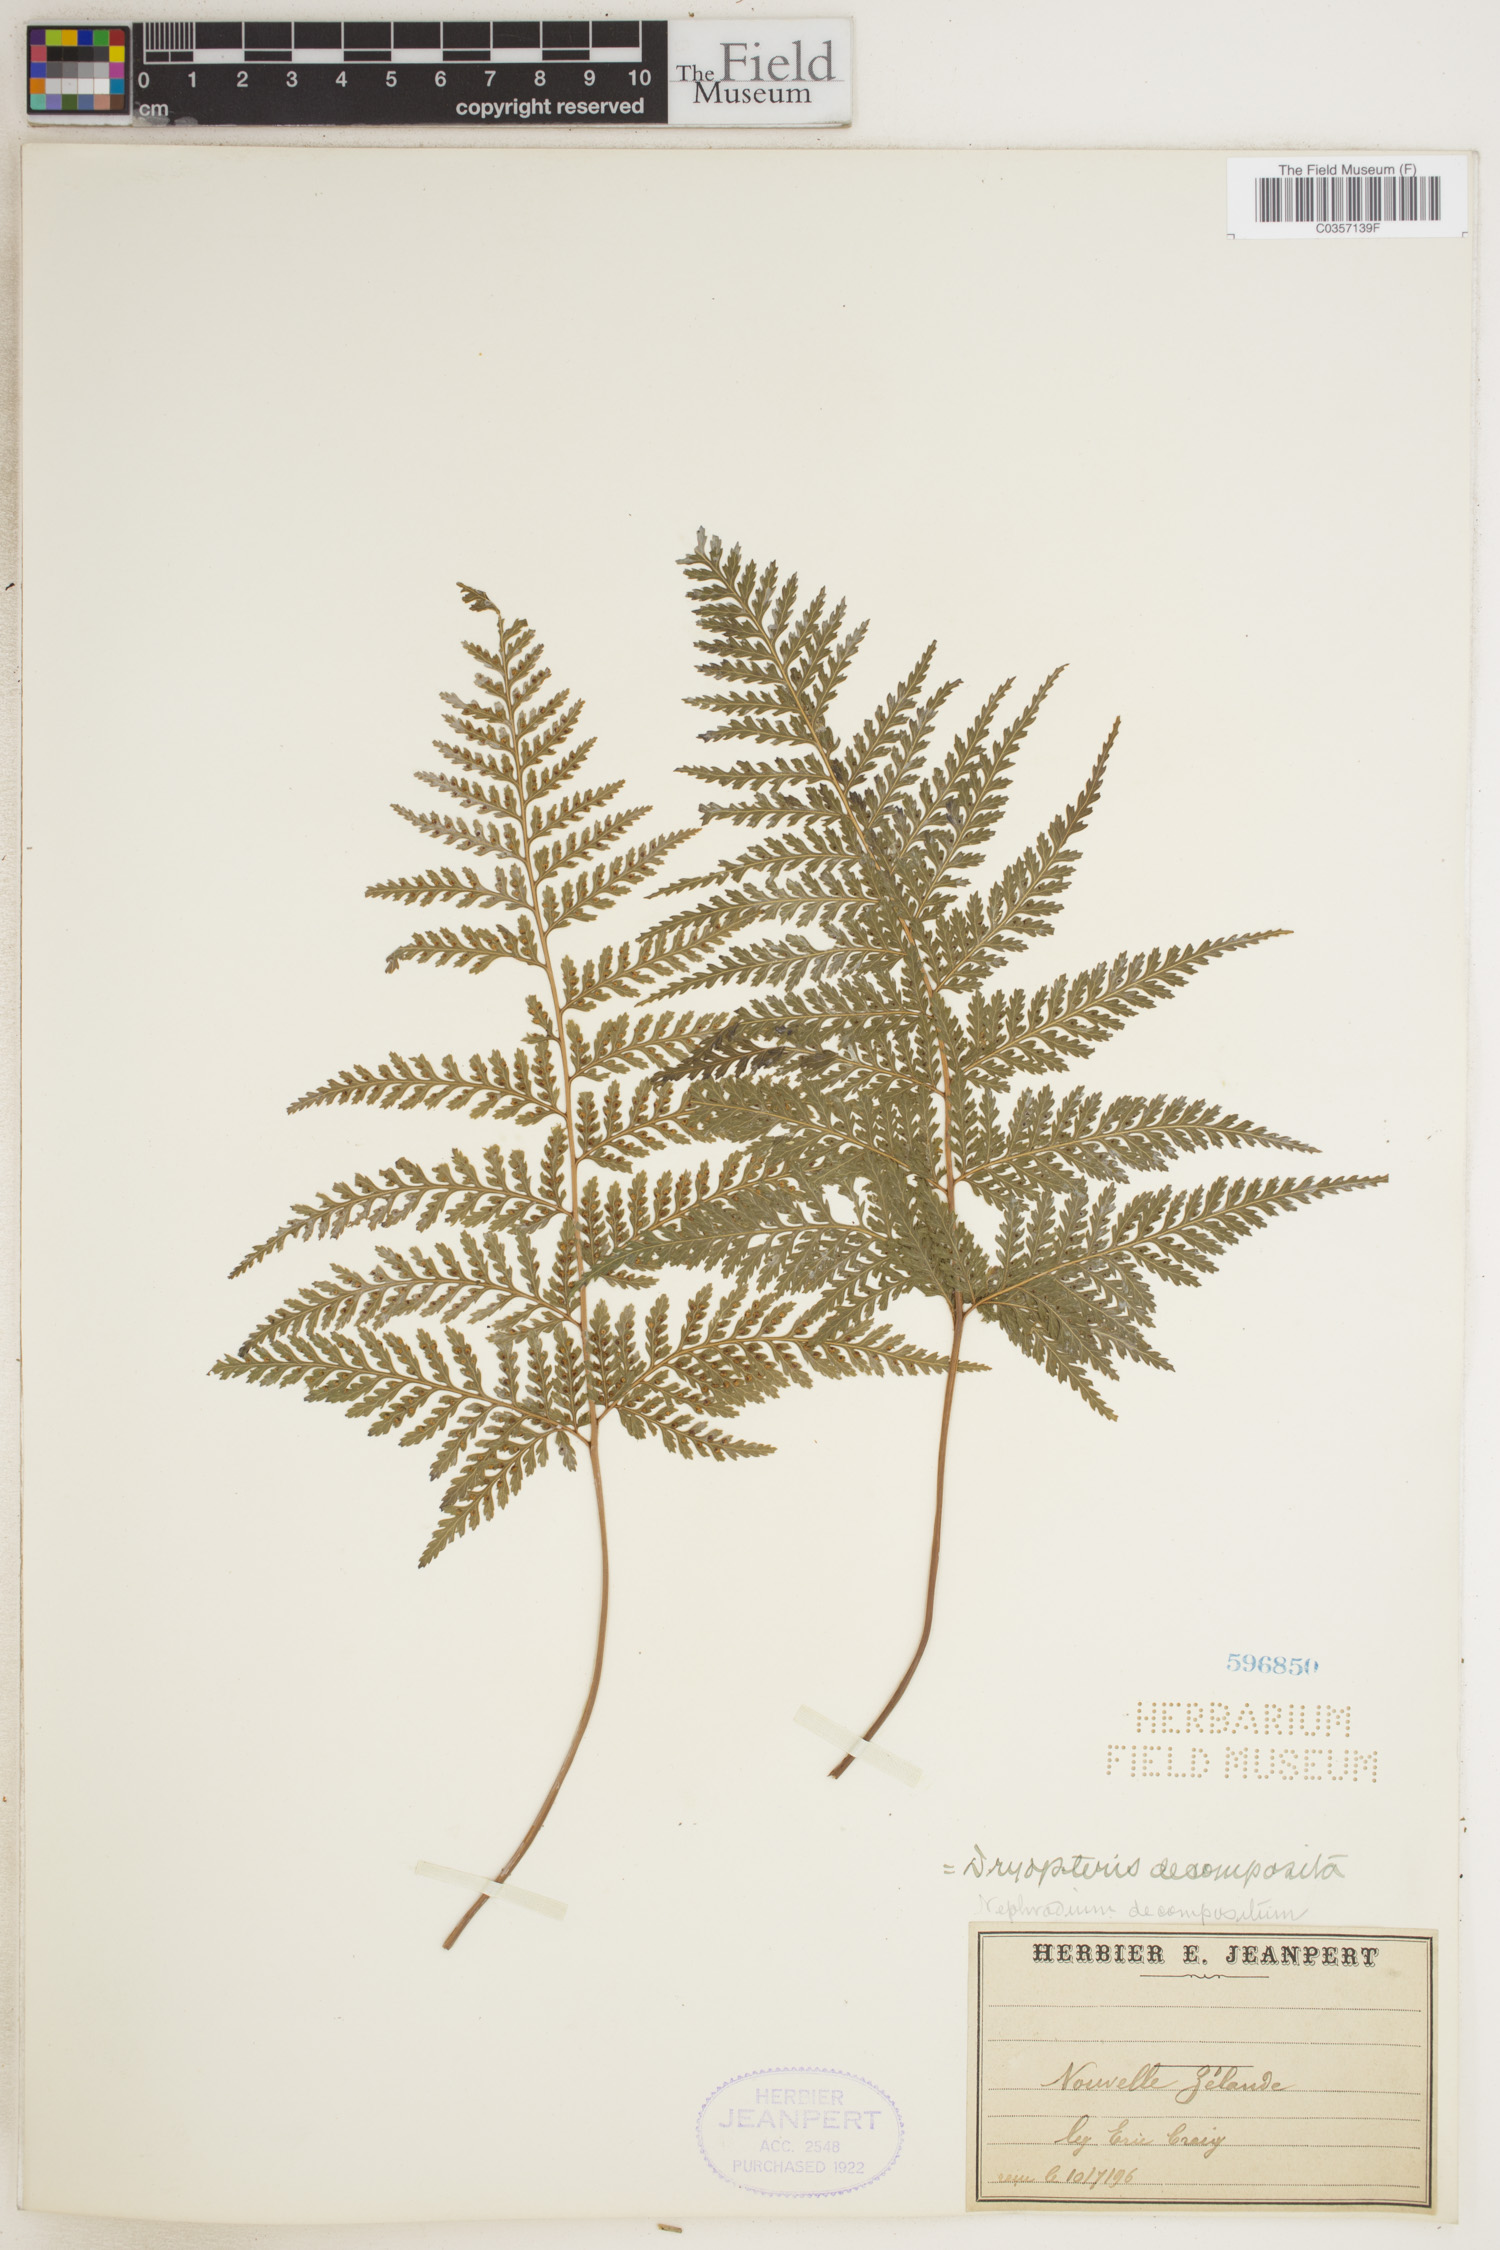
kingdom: Plantae
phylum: Tracheophyta
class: Polypodiopsida
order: Polypodiales
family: Dryopteridaceae
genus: Lastreopsis
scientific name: Lastreopsis decomposita
